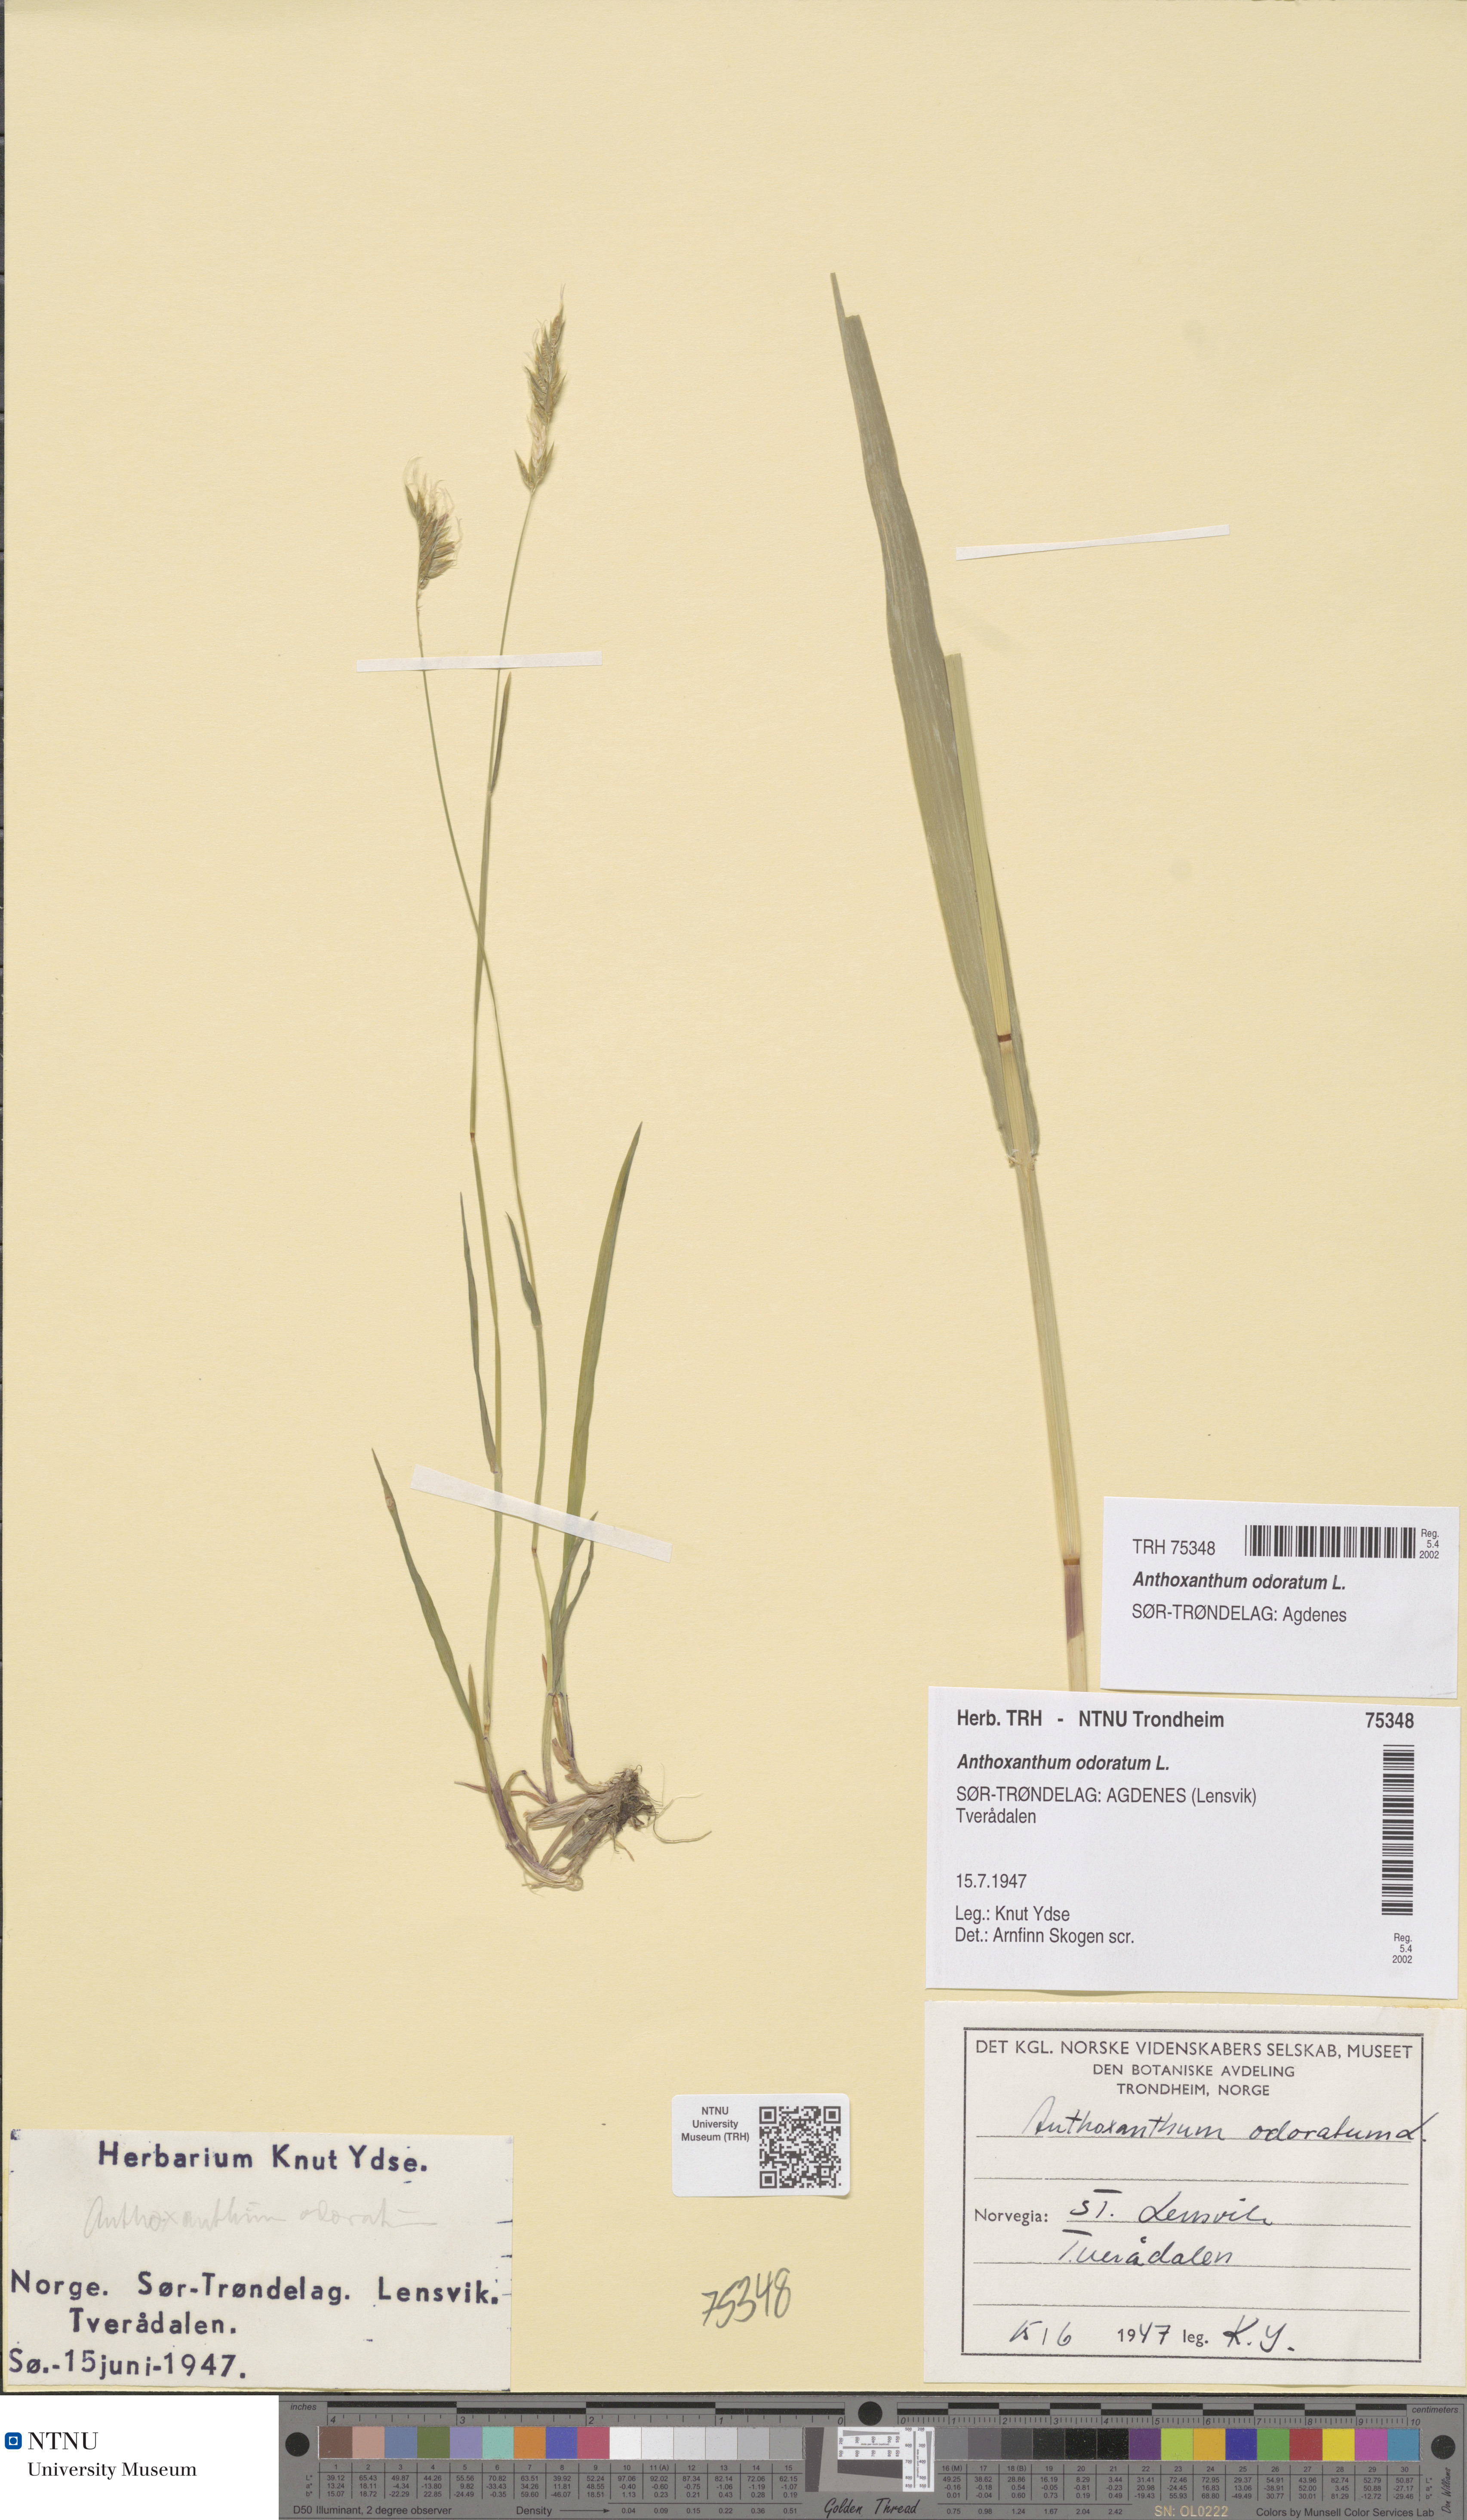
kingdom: Plantae
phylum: Tracheophyta
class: Liliopsida
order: Poales
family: Poaceae
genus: Anthoxanthum
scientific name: Anthoxanthum odoratum
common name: Sweet vernalgrass
